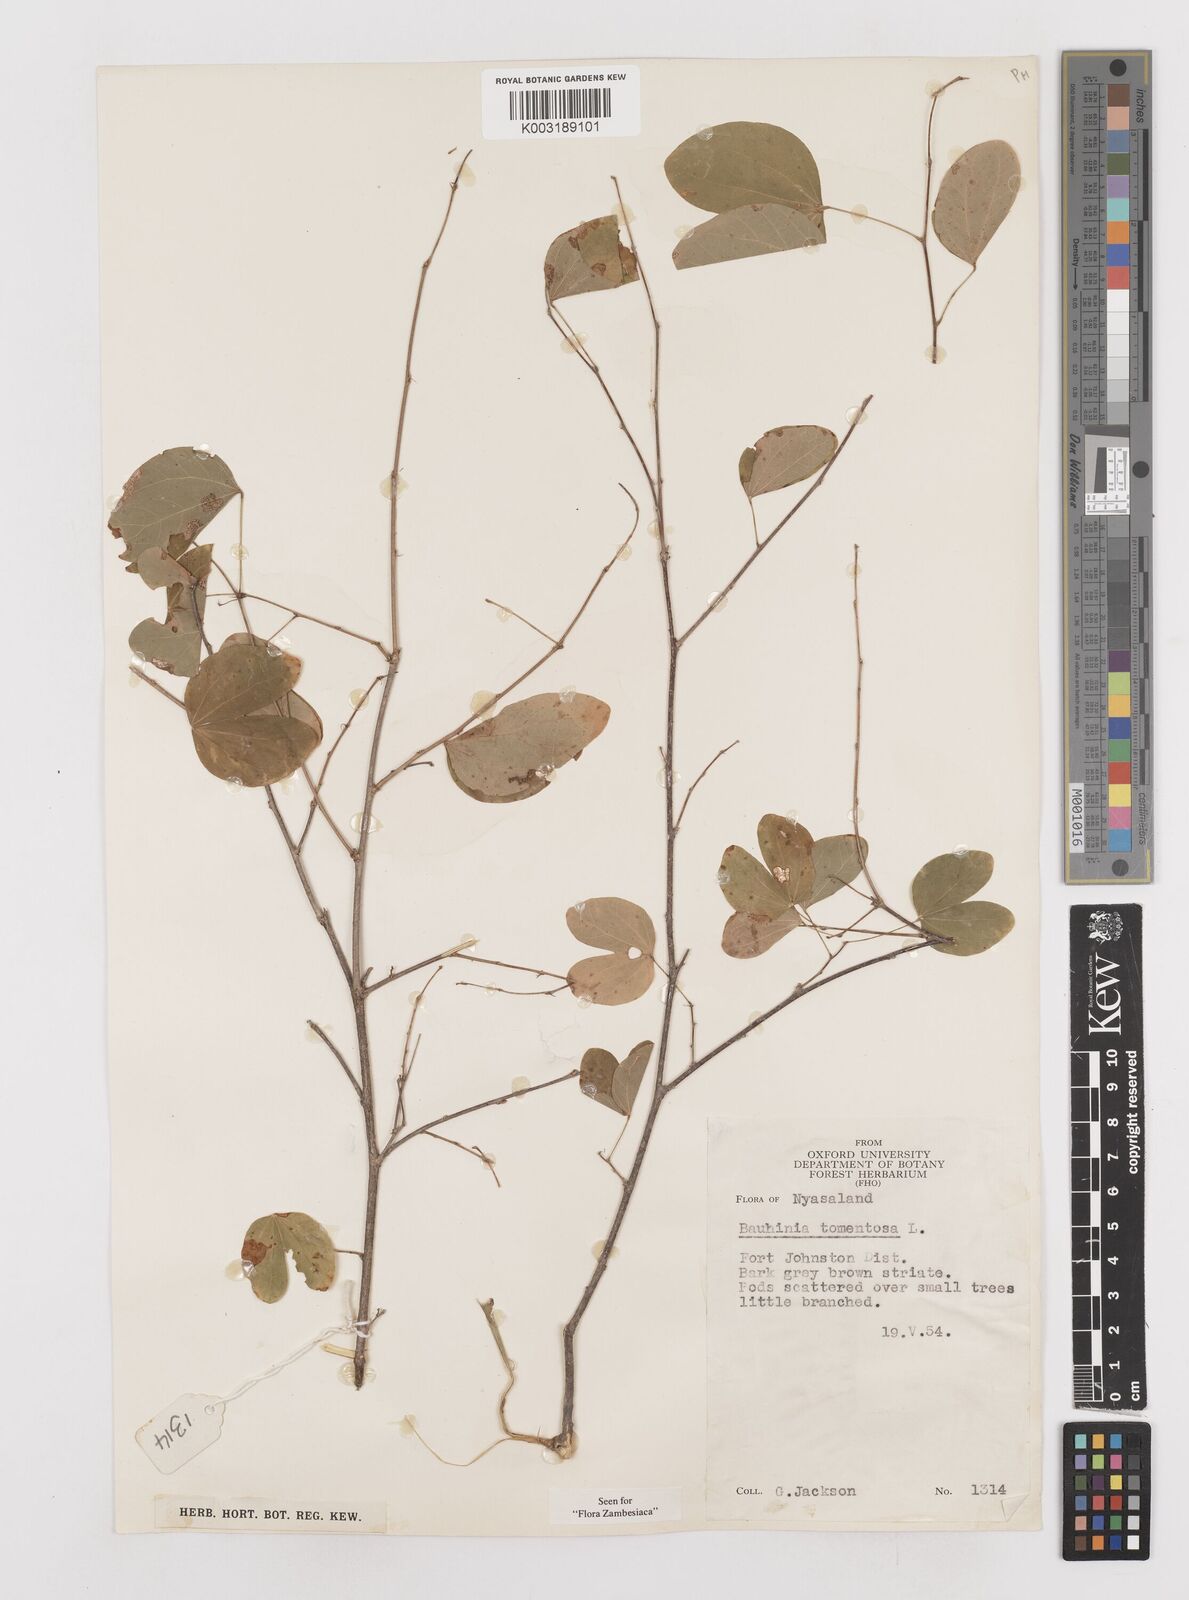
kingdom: Plantae
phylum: Tracheophyta
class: Magnoliopsida
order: Fabales
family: Fabaceae
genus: Bauhinia
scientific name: Bauhinia tomentosa
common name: Bell bauhinia
